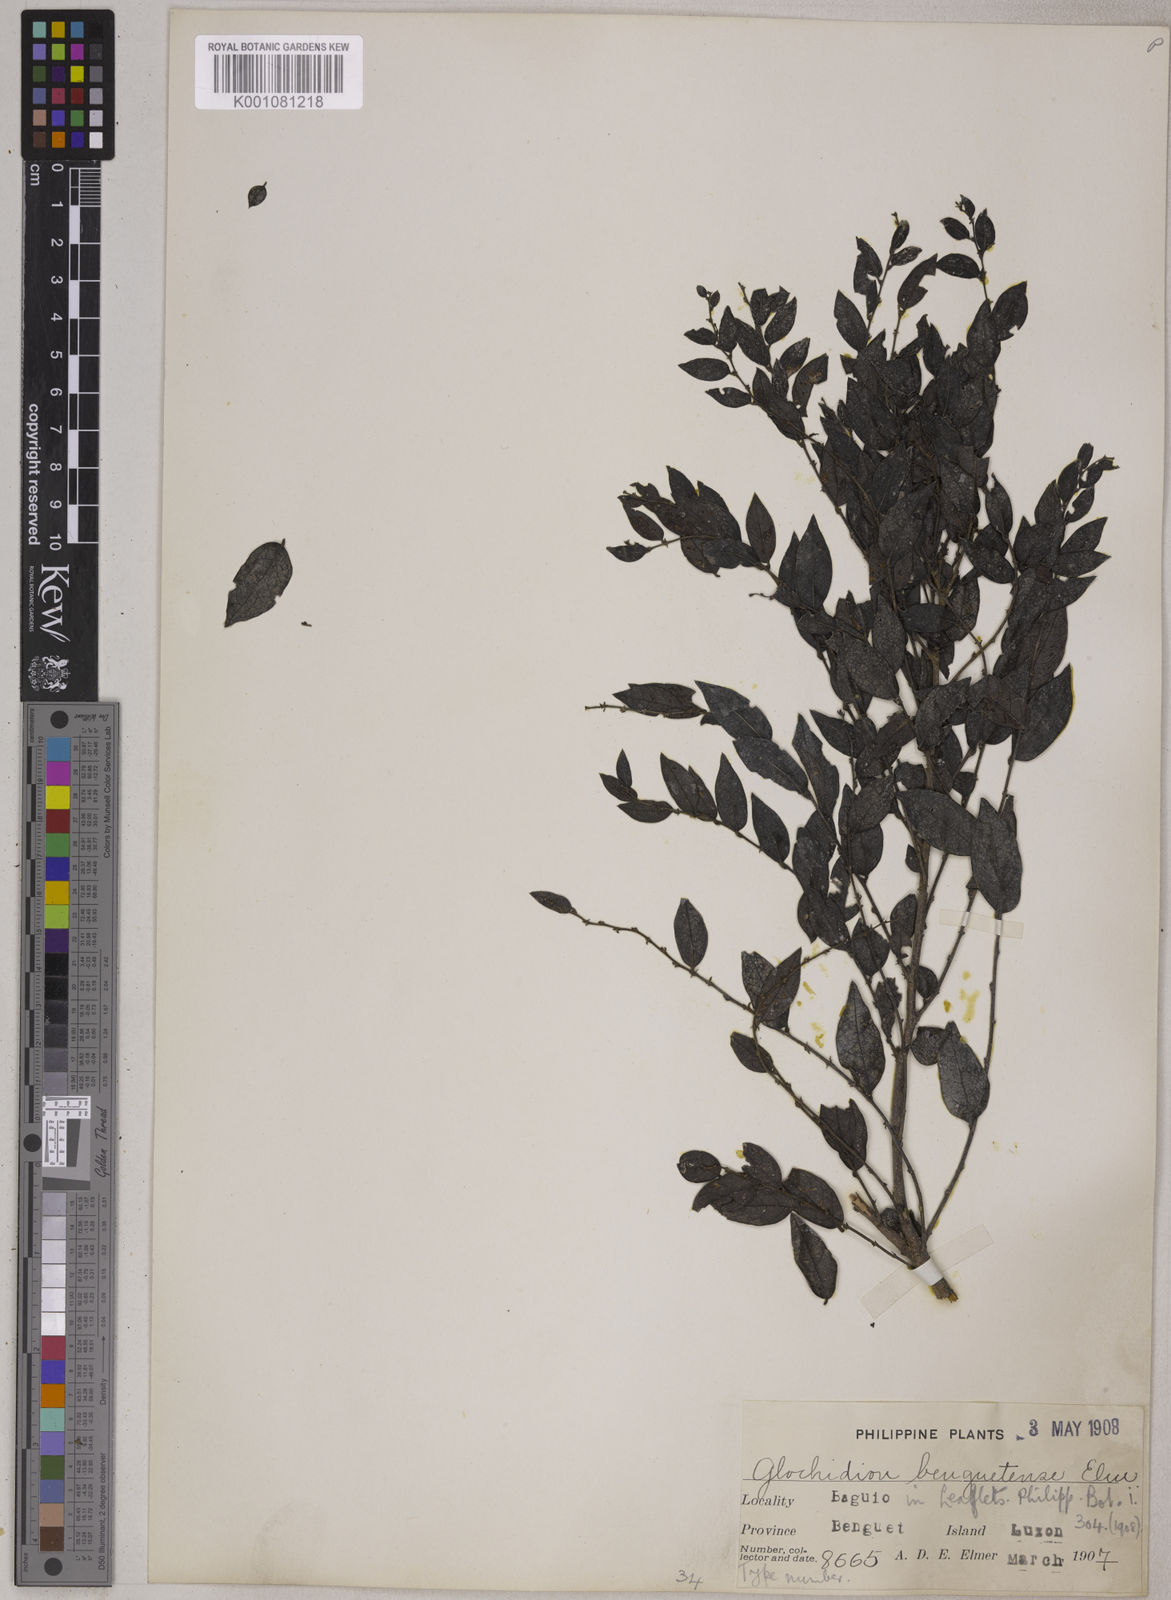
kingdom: Plantae
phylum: Tracheophyta
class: Magnoliopsida
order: Malpighiales
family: Phyllanthaceae
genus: Glochidion
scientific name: Glochidion benguetense
